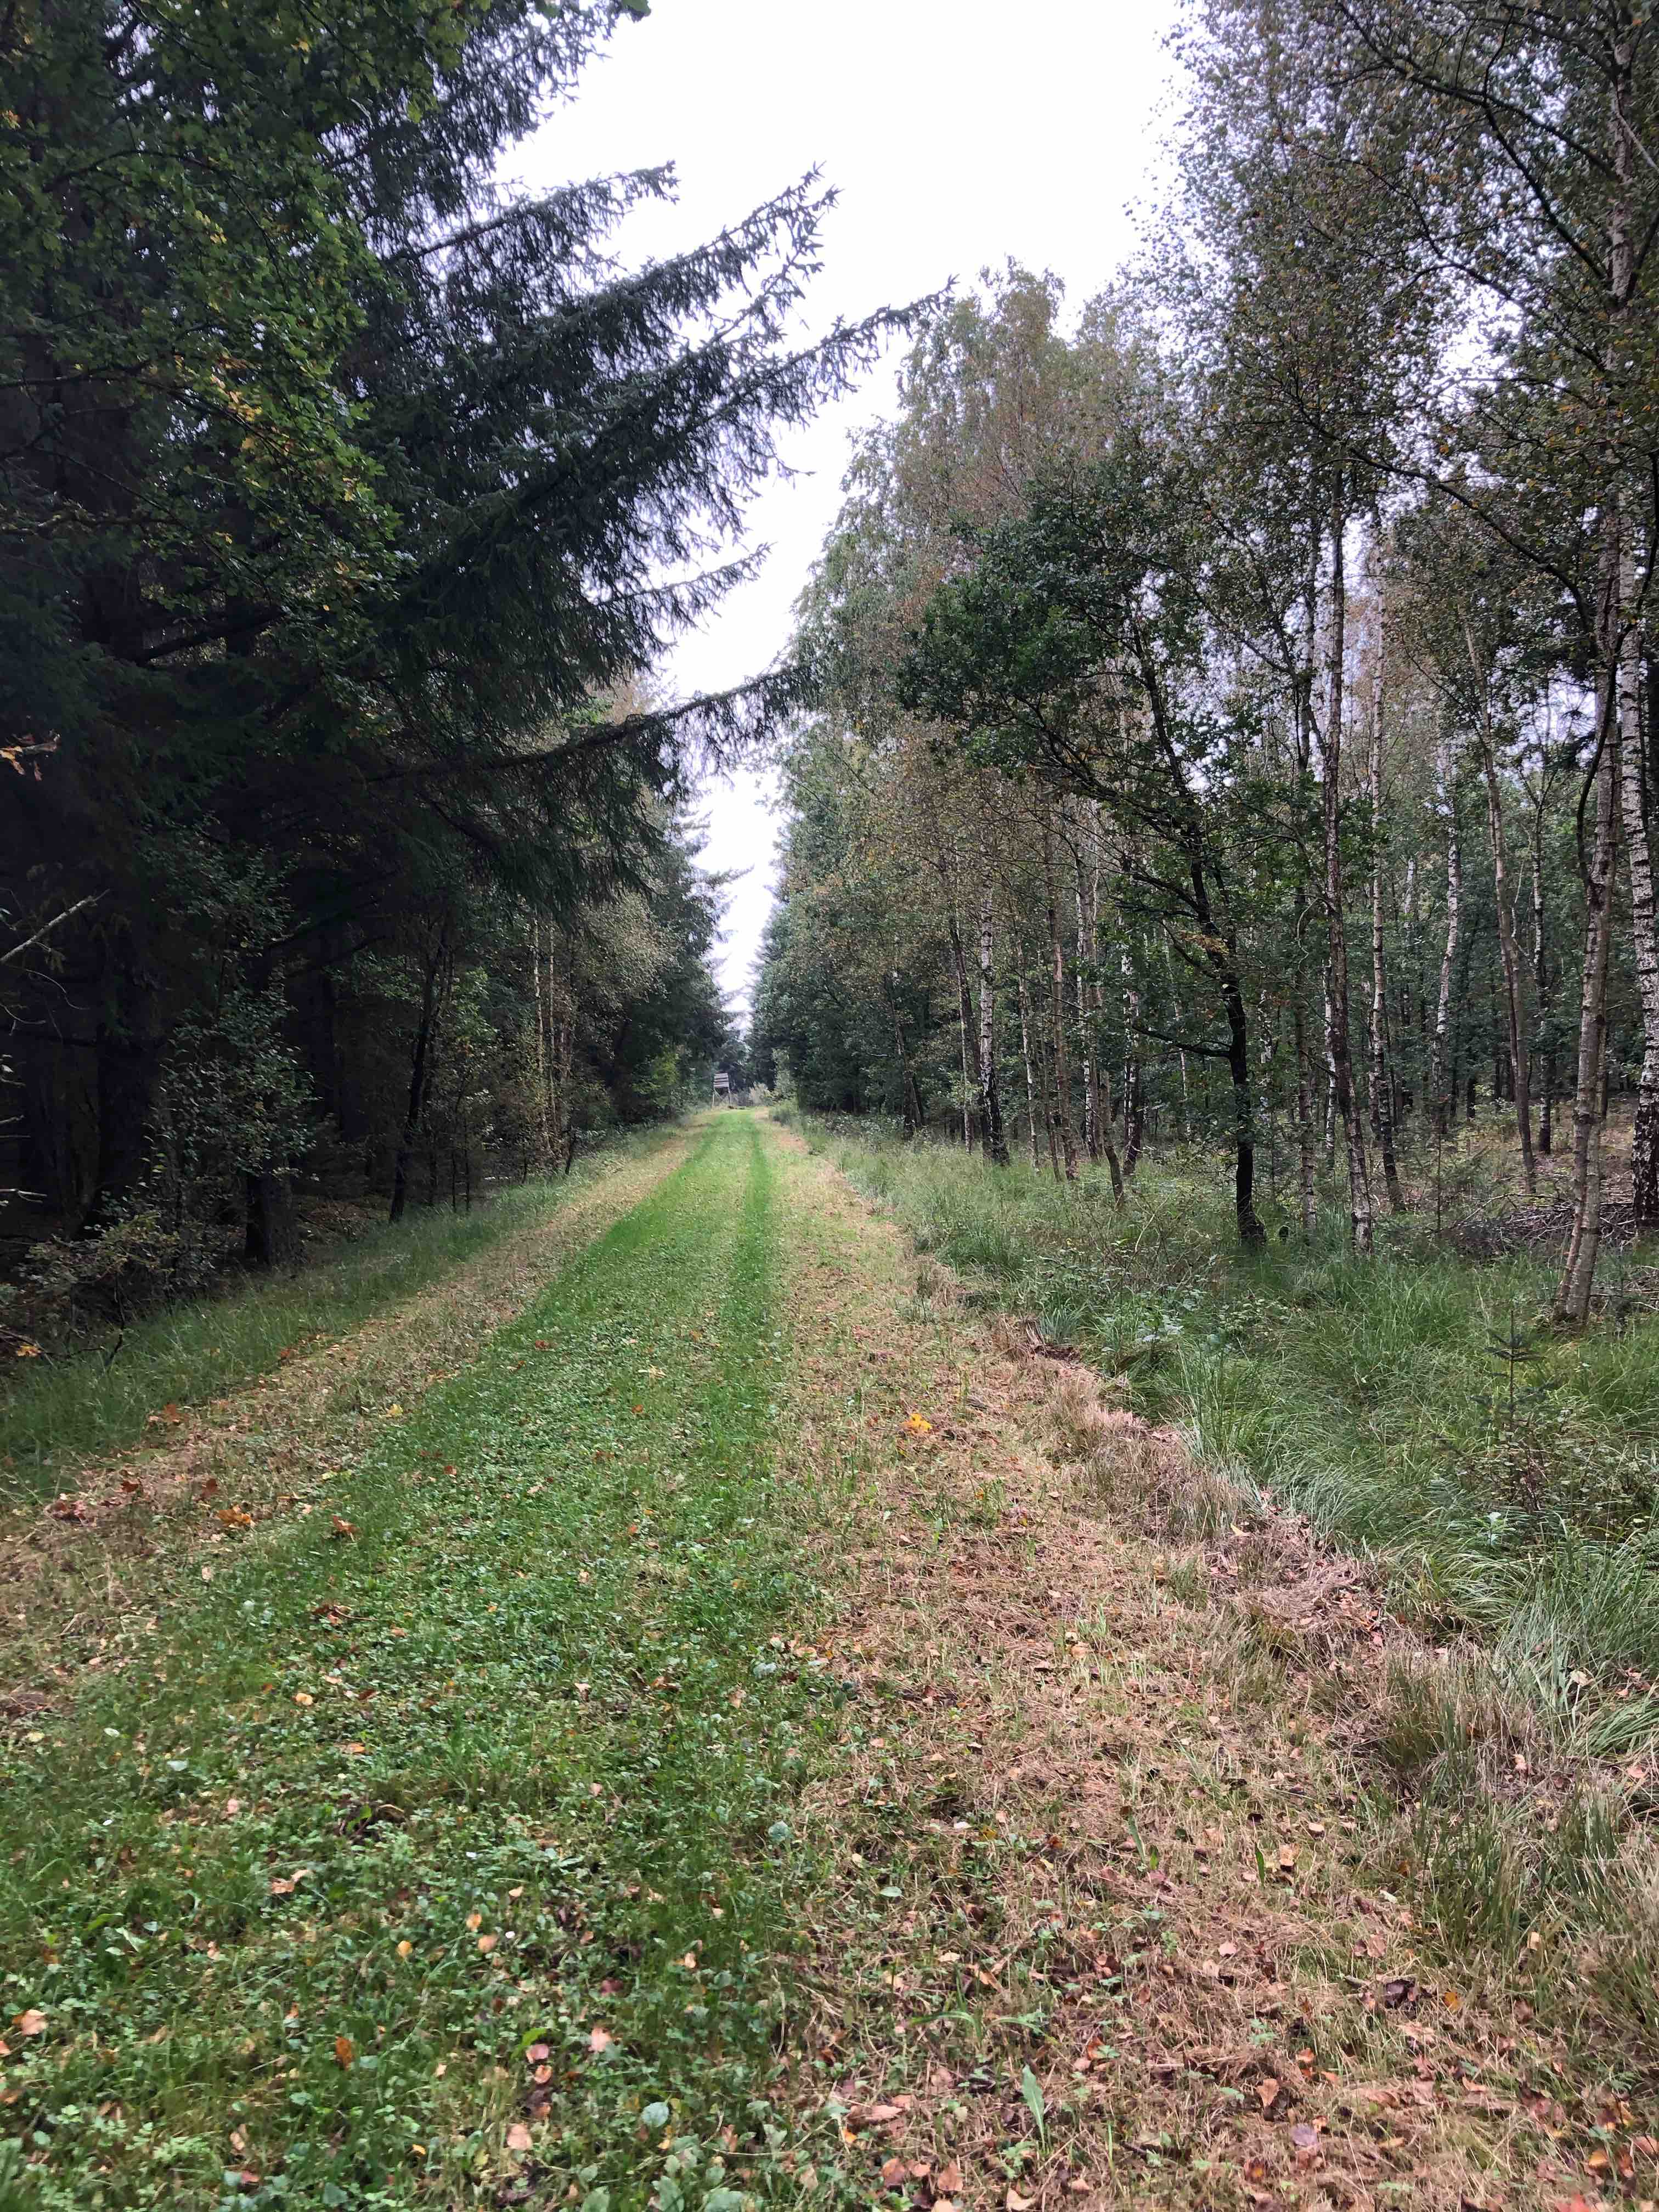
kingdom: Fungi
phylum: Basidiomycota
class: Agaricomycetes
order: Agaricales
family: Bolbitiaceae
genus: Bolbitius
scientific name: Bolbitius titubans
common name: almindelig gulhat
